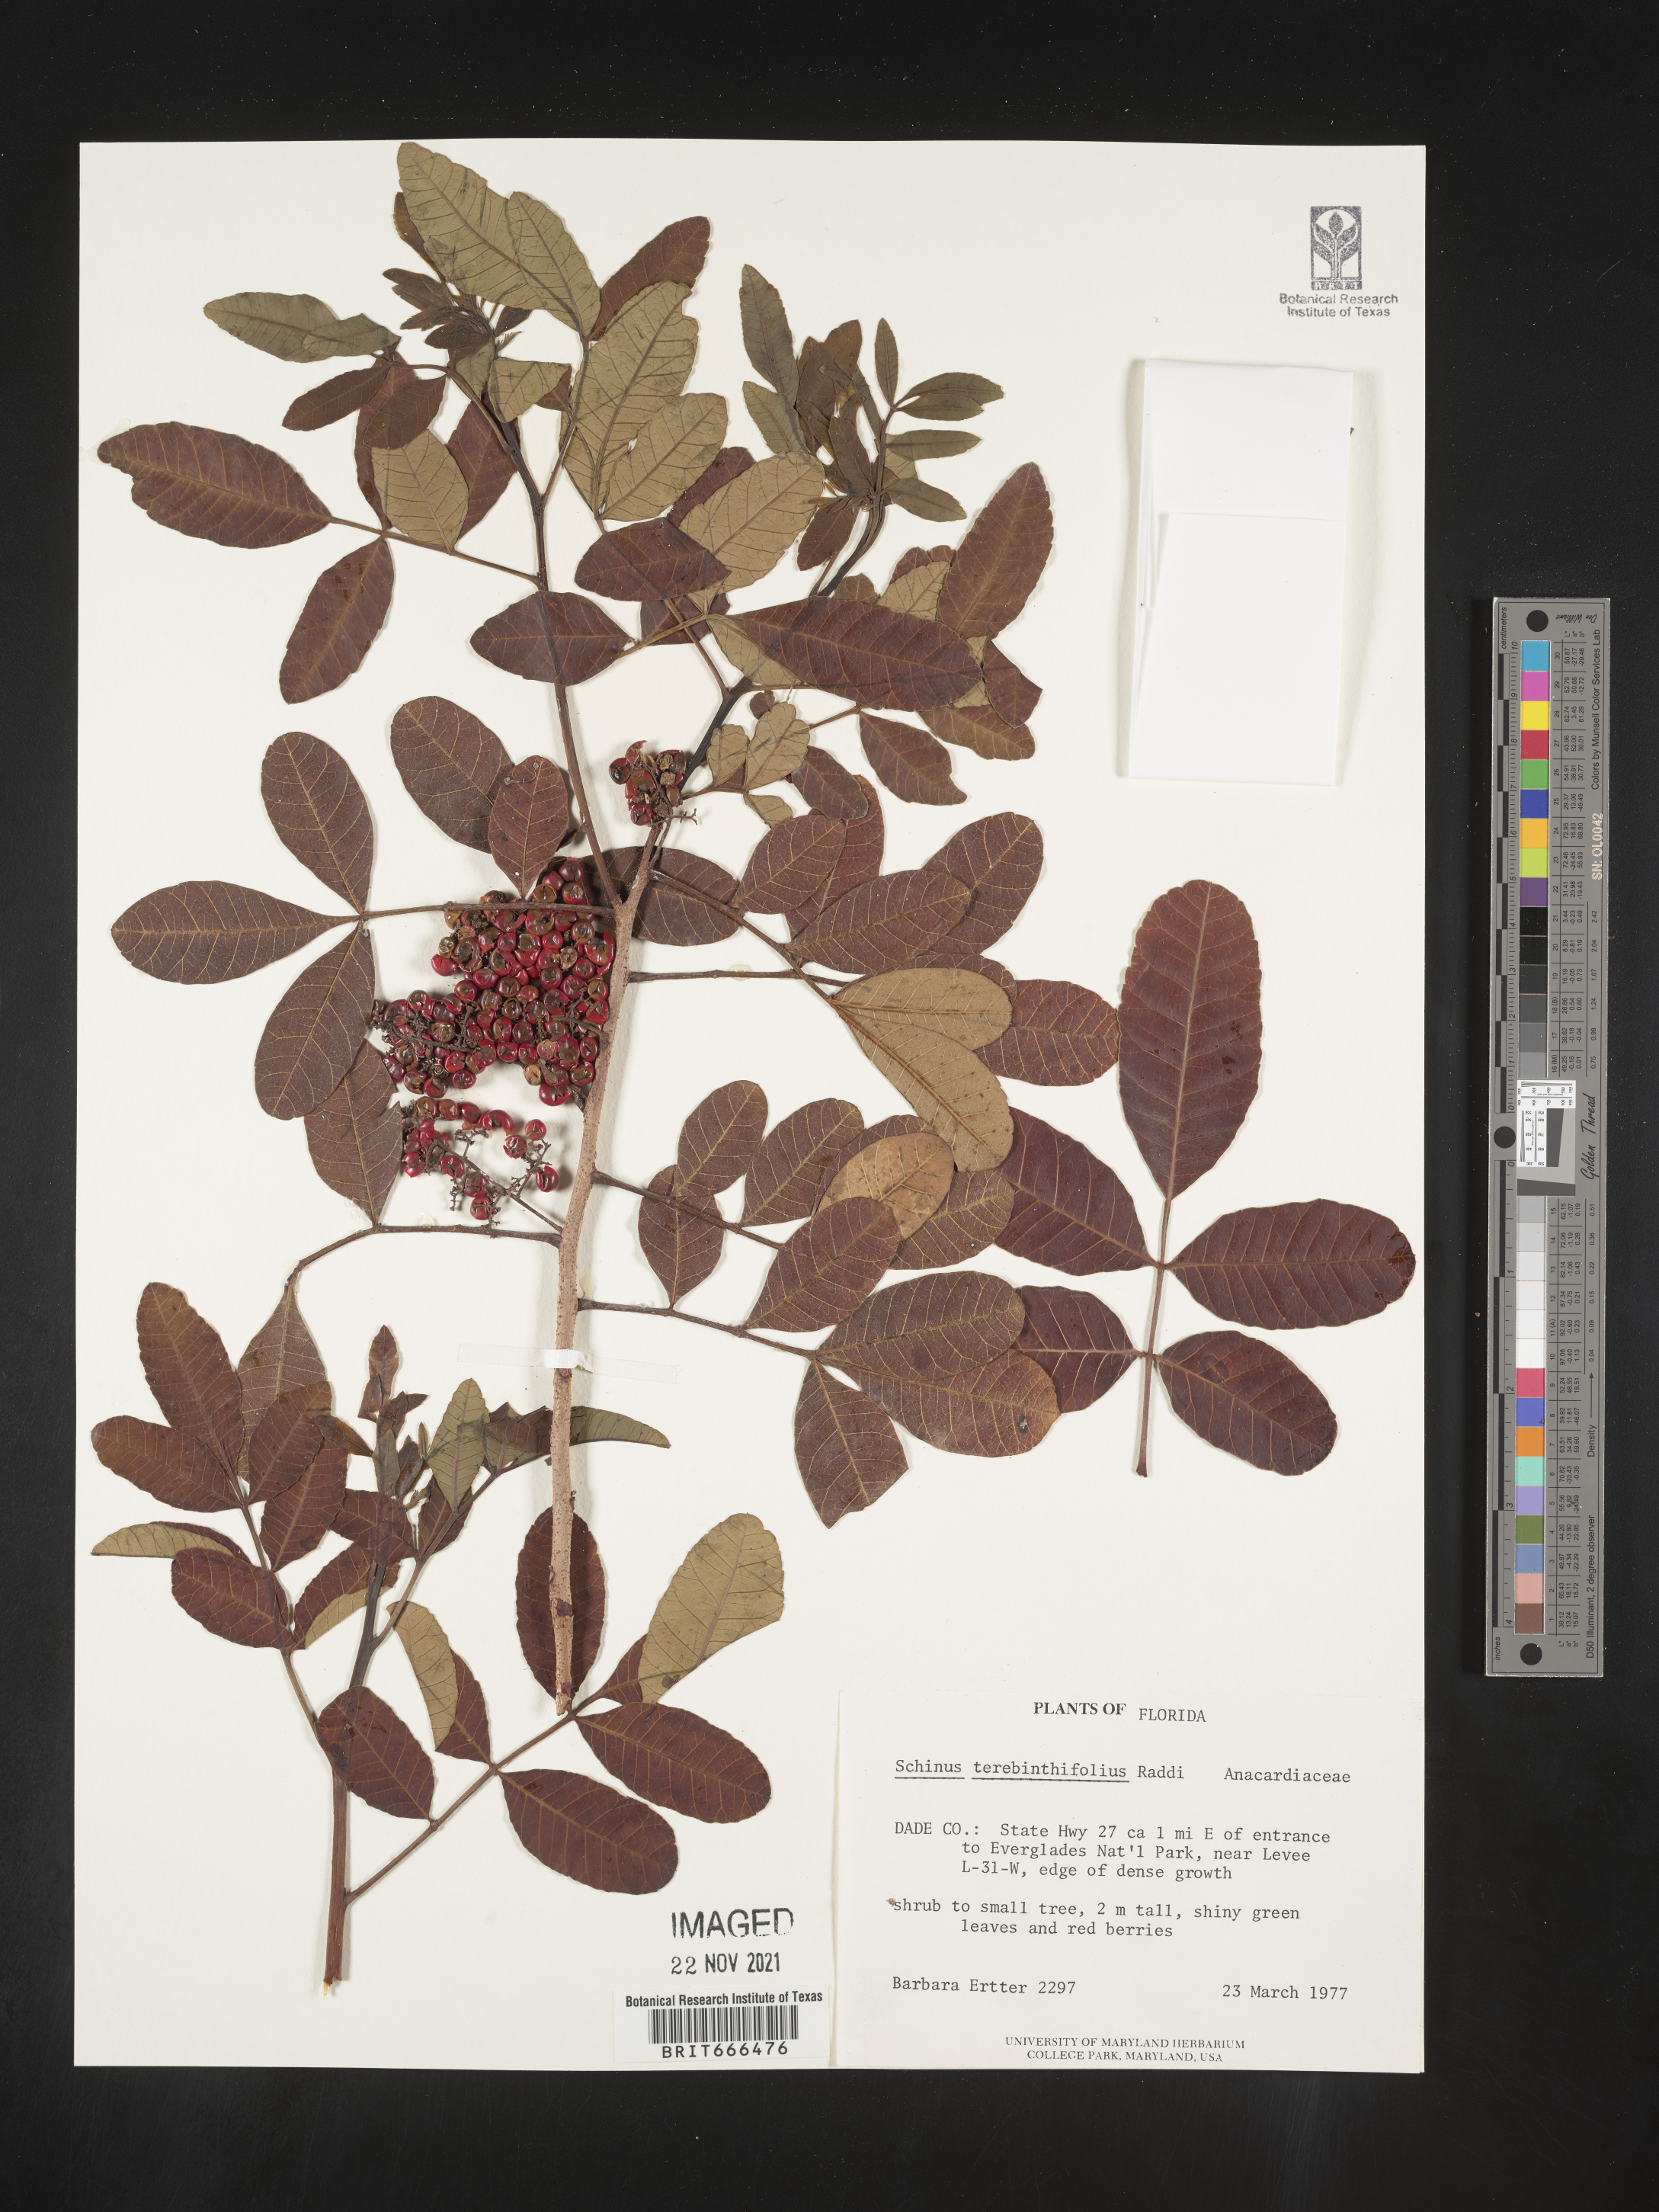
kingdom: Plantae
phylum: Tracheophyta
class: Magnoliopsida
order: Sapindales
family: Anacardiaceae
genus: Schinus
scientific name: Schinus
